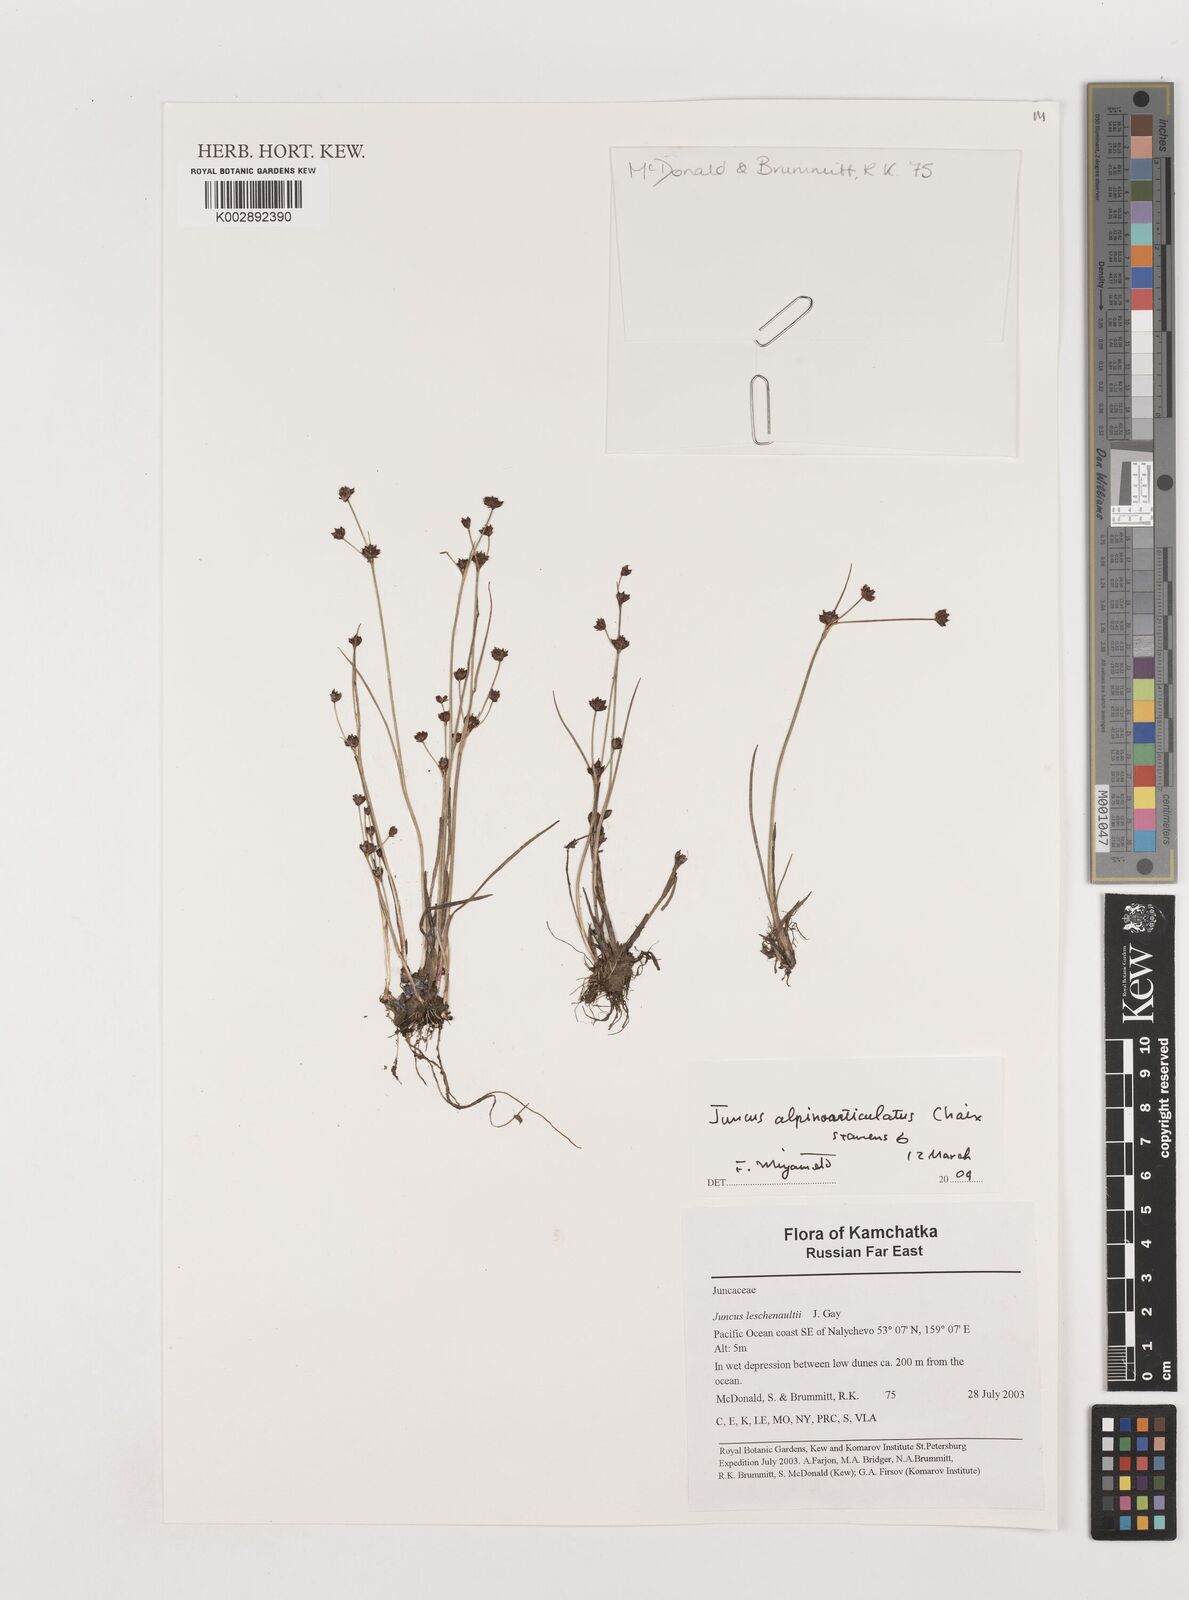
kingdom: Plantae
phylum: Tracheophyta
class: Liliopsida
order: Poales
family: Juncaceae
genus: Juncus
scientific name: Juncus prismatocarpus
